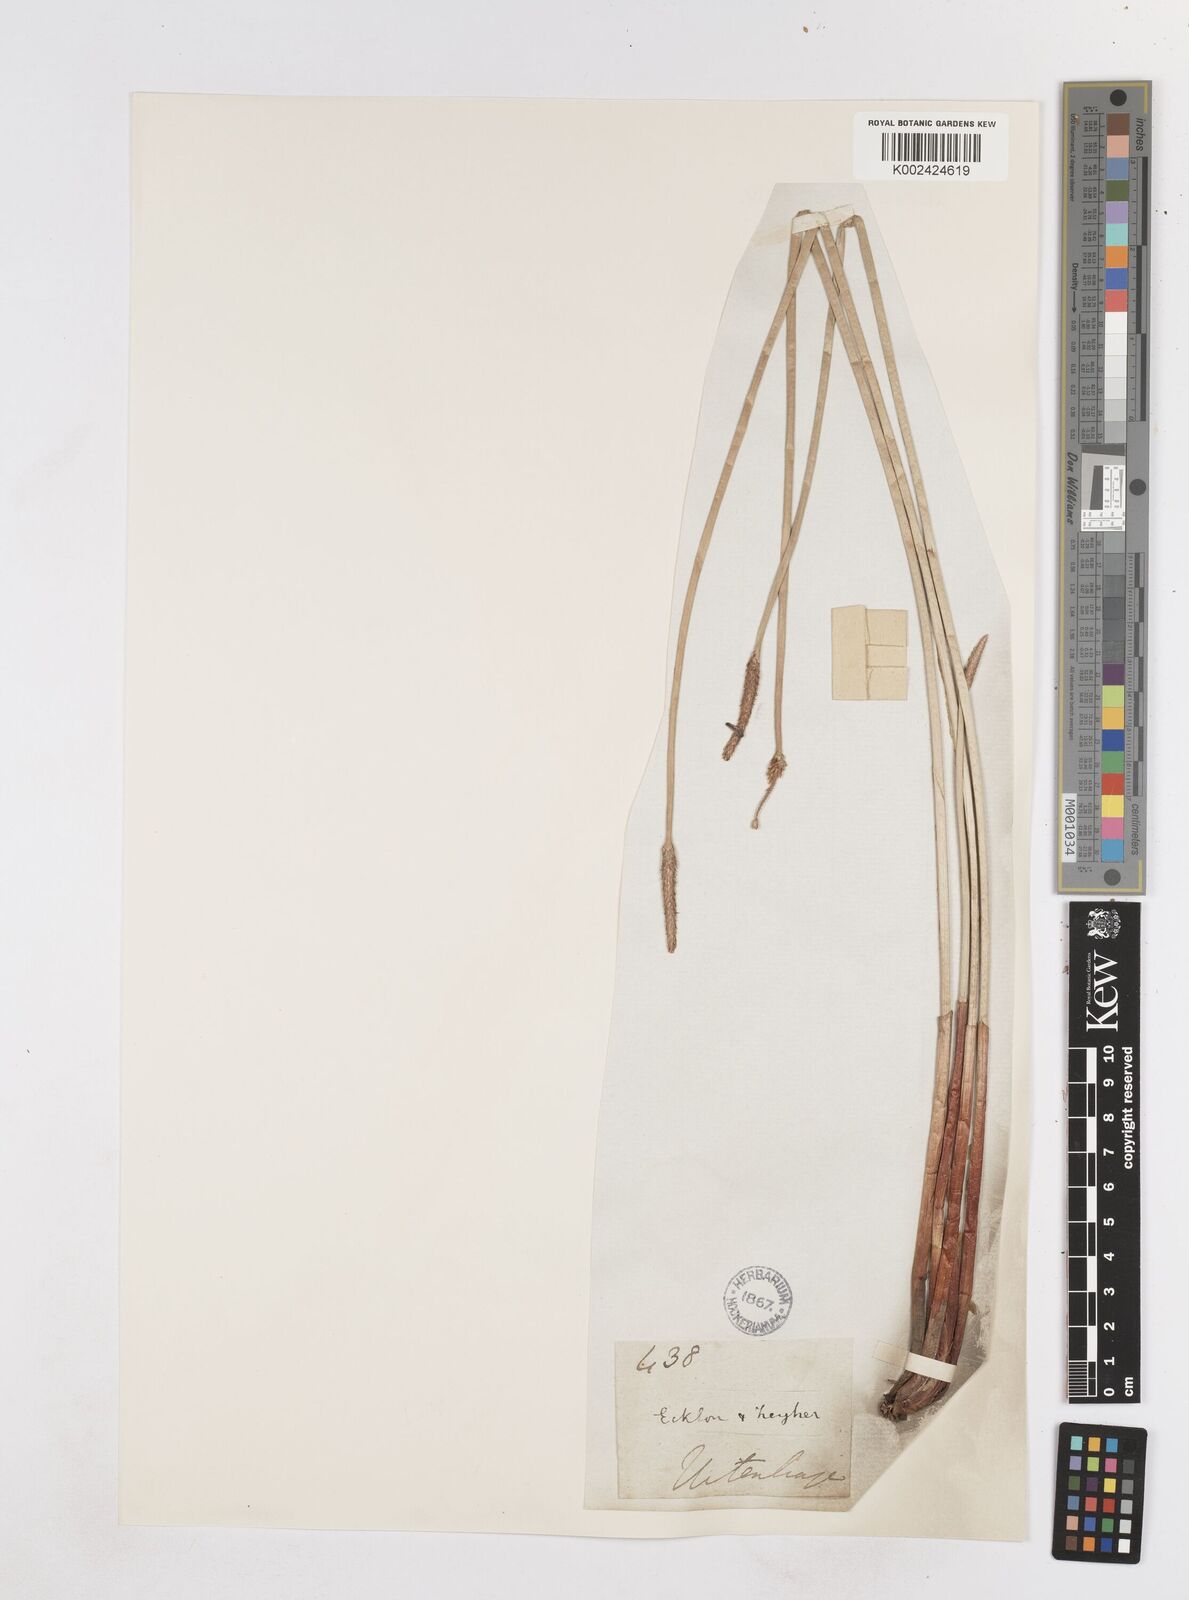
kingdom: Plantae
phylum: Tracheophyta
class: Liliopsida
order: Poales
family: Cyperaceae
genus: Eleocharis
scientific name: Eleocharis limosa
